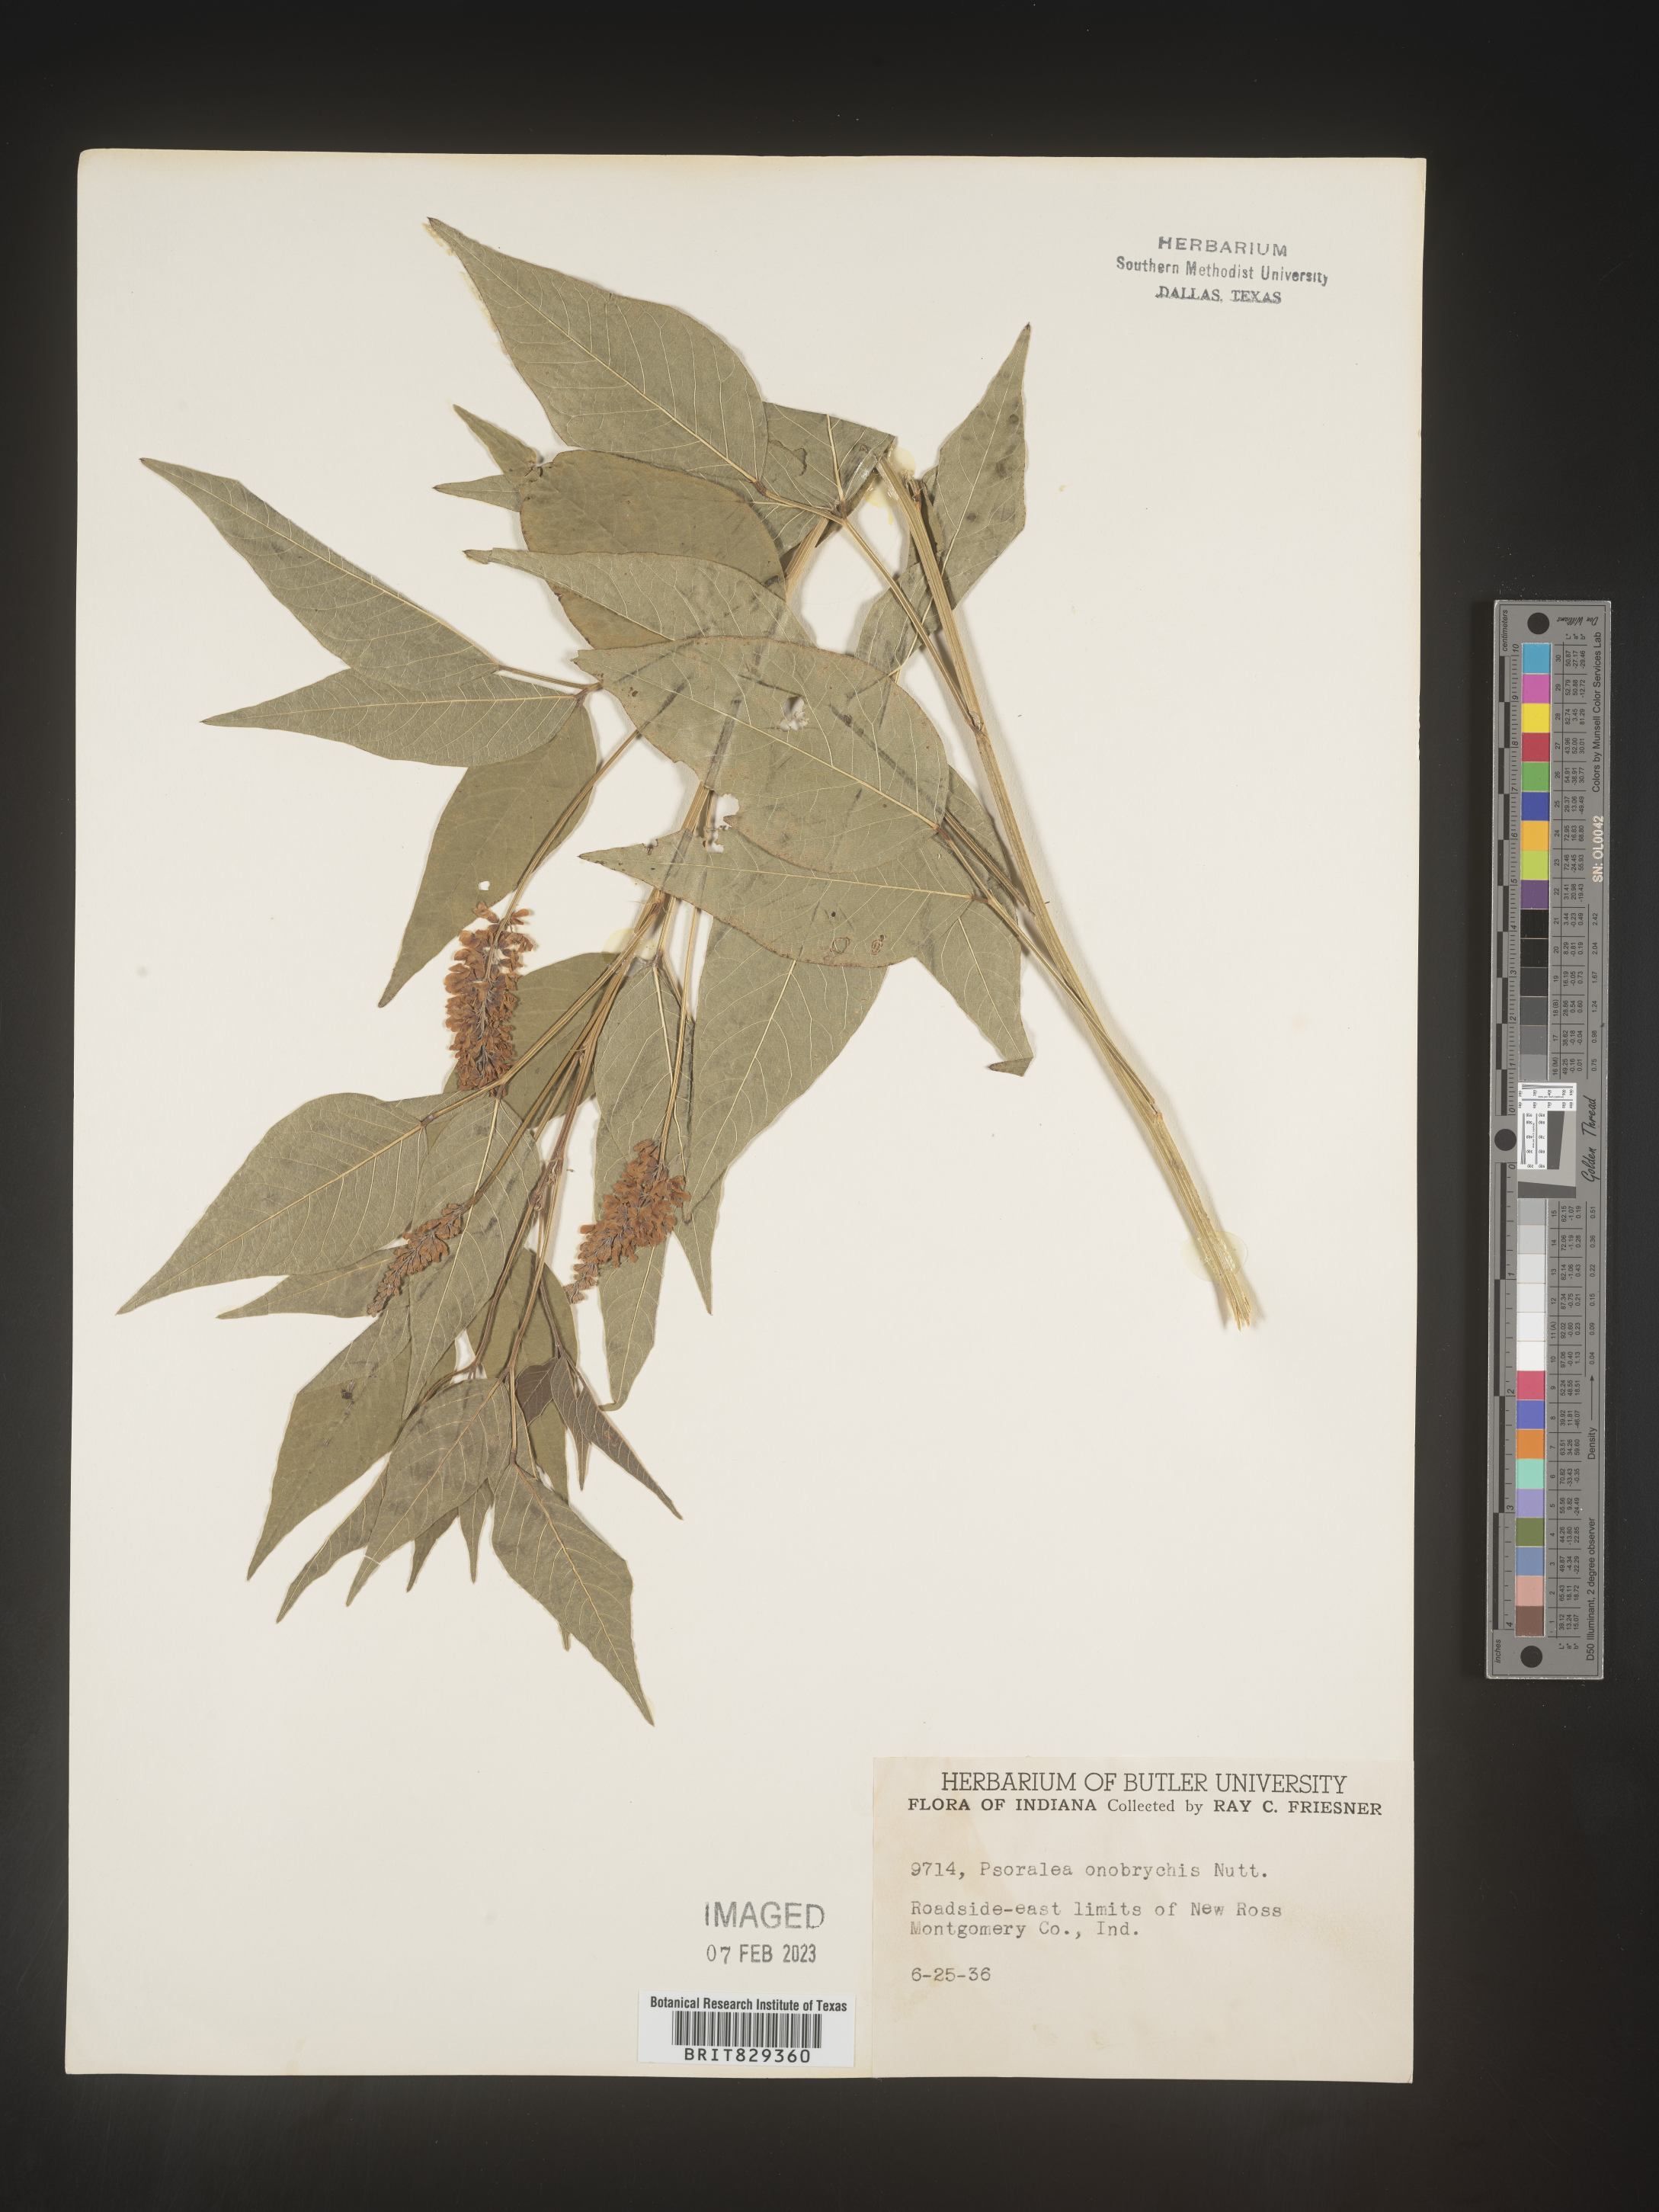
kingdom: Plantae
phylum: Tracheophyta
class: Magnoliopsida
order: Fabales
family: Fabaceae
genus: Psoralea
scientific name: Psoralea
